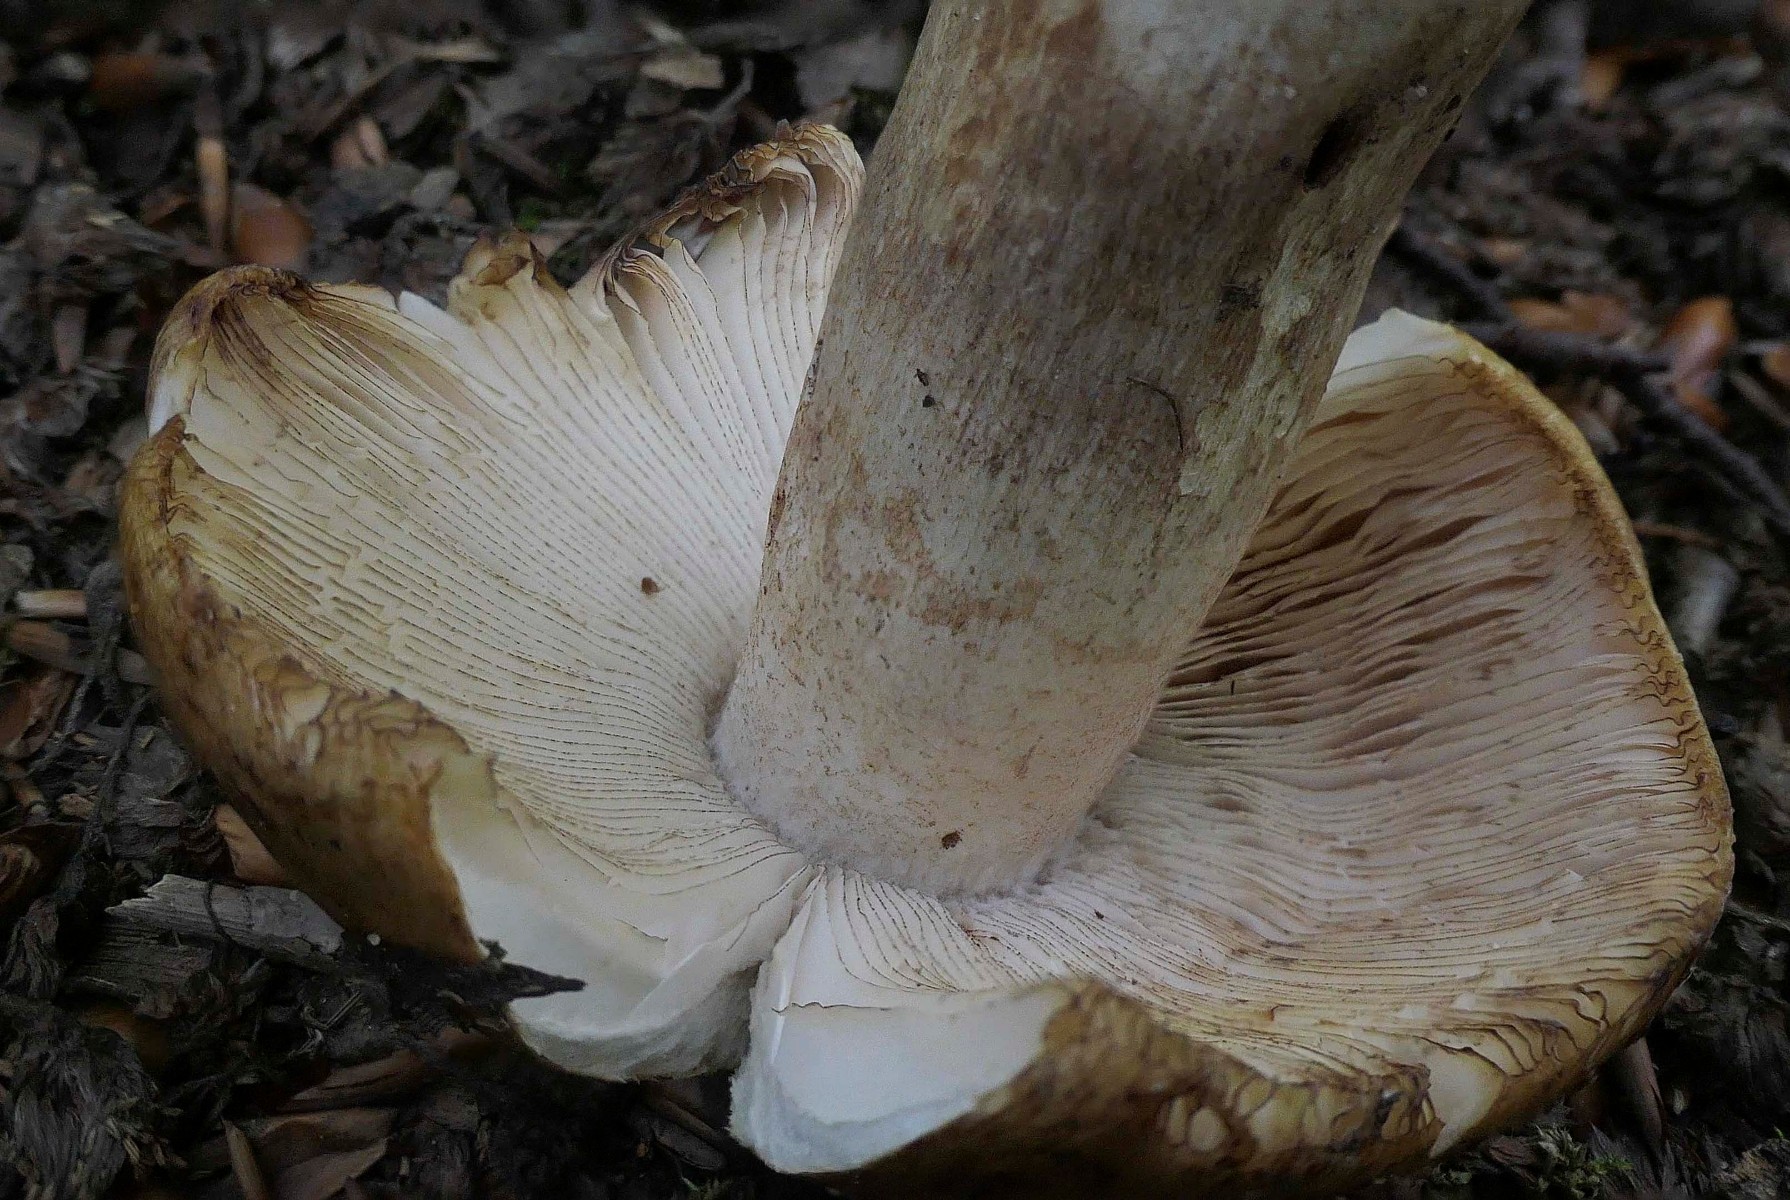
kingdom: Fungi
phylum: Basidiomycota
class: Agaricomycetes
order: Russulales
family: Russulaceae
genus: Russula
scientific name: Russula illota
